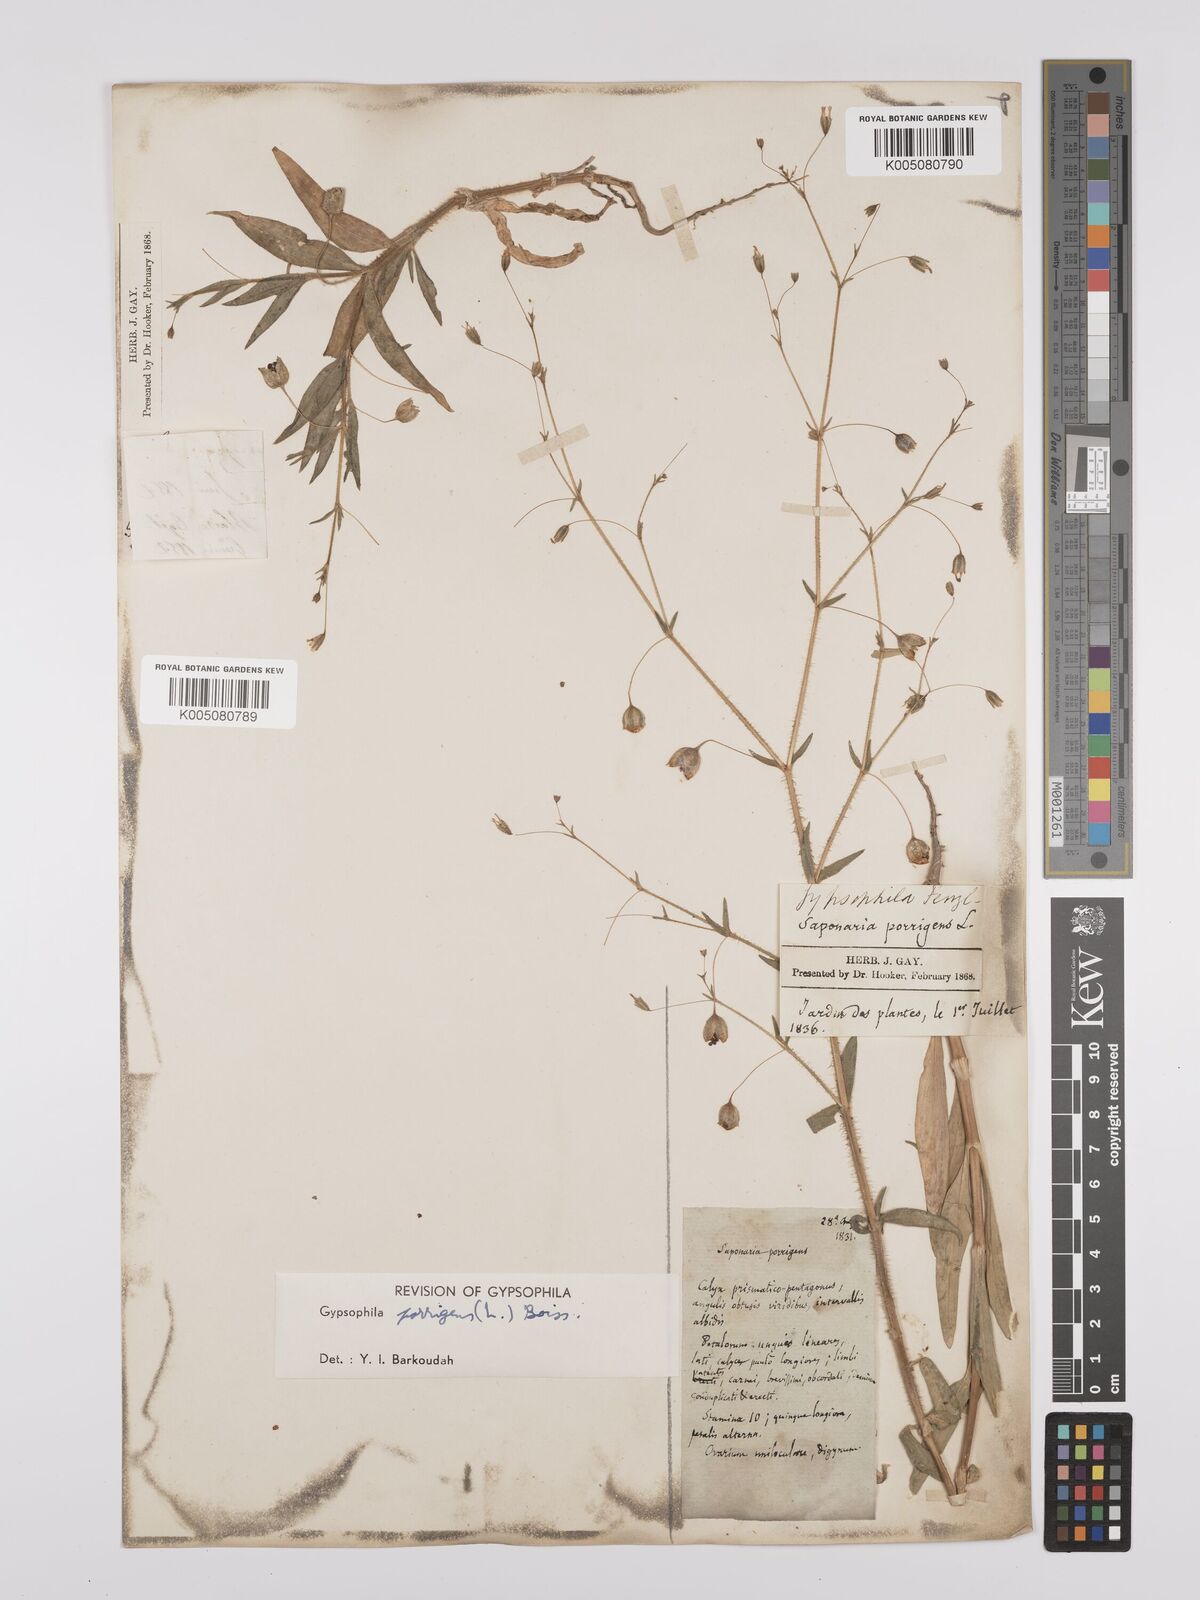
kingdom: Plantae
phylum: Tracheophyta
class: Magnoliopsida
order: Caryophyllales
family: Caryophyllaceae
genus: Gypsophila
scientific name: Gypsophila pilosa
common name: Turkish baby's-breath
